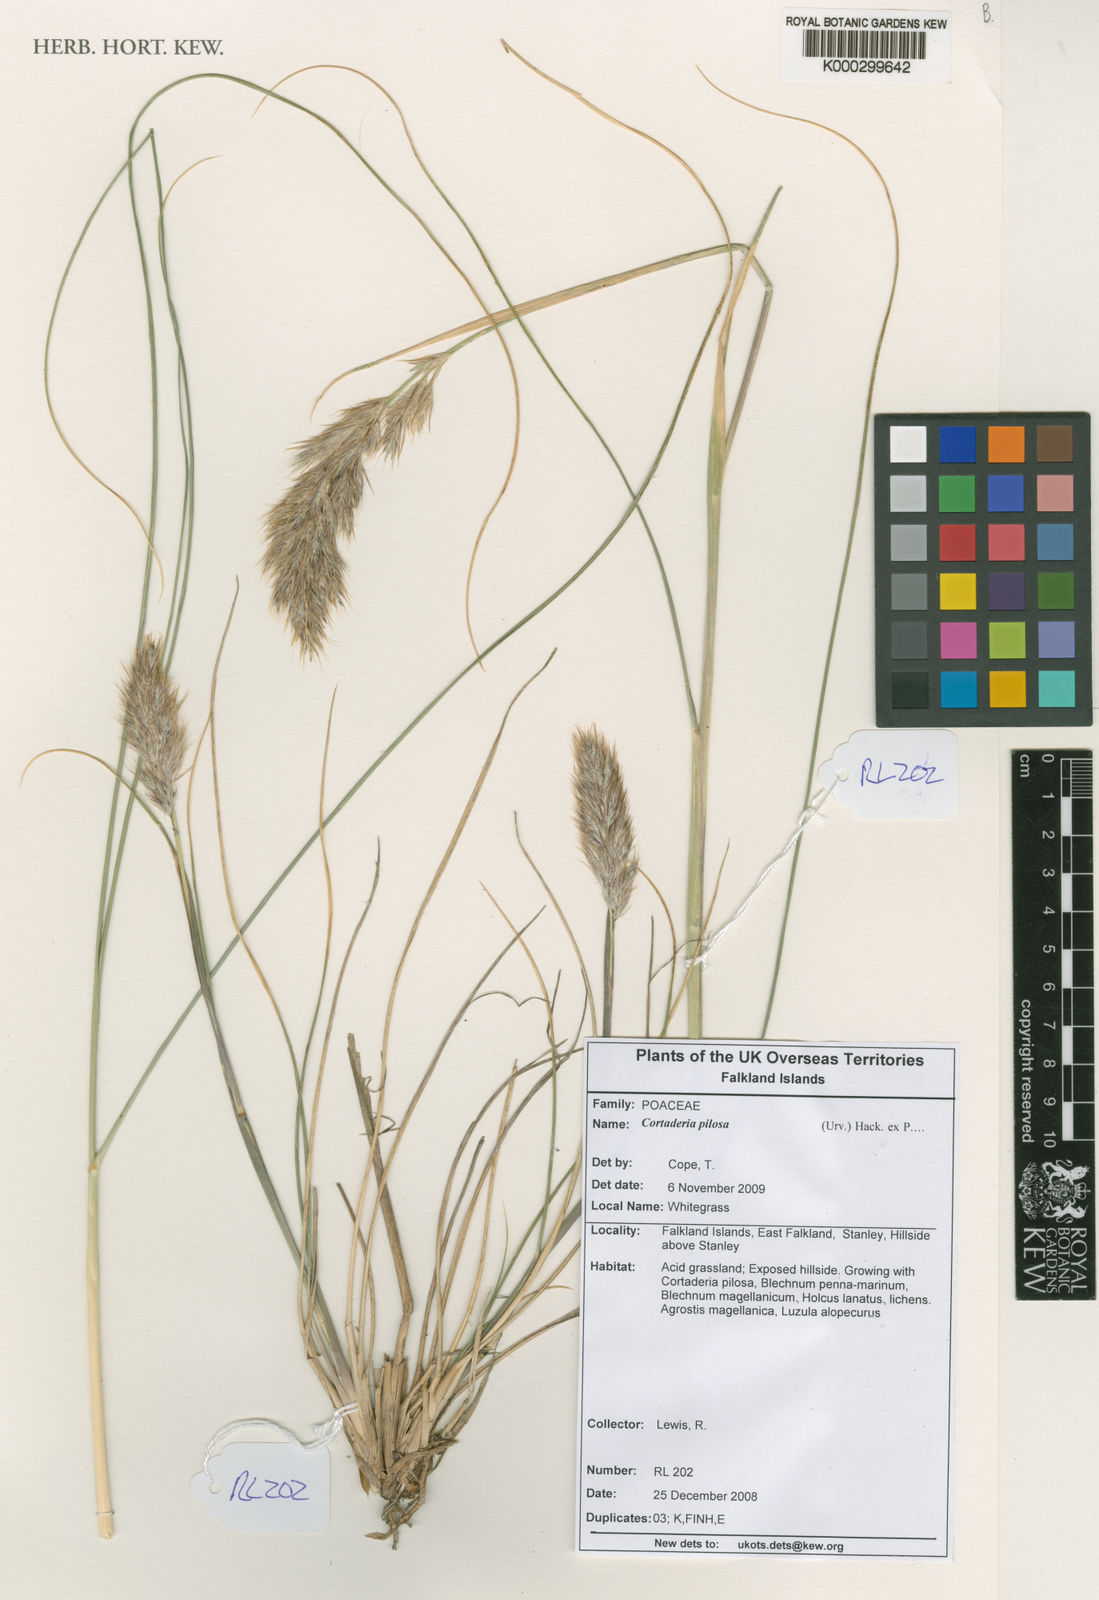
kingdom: Plantae
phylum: Tracheophyta
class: Liliopsida
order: Poales
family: Poaceae
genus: Cortaderia
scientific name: Cortaderia
